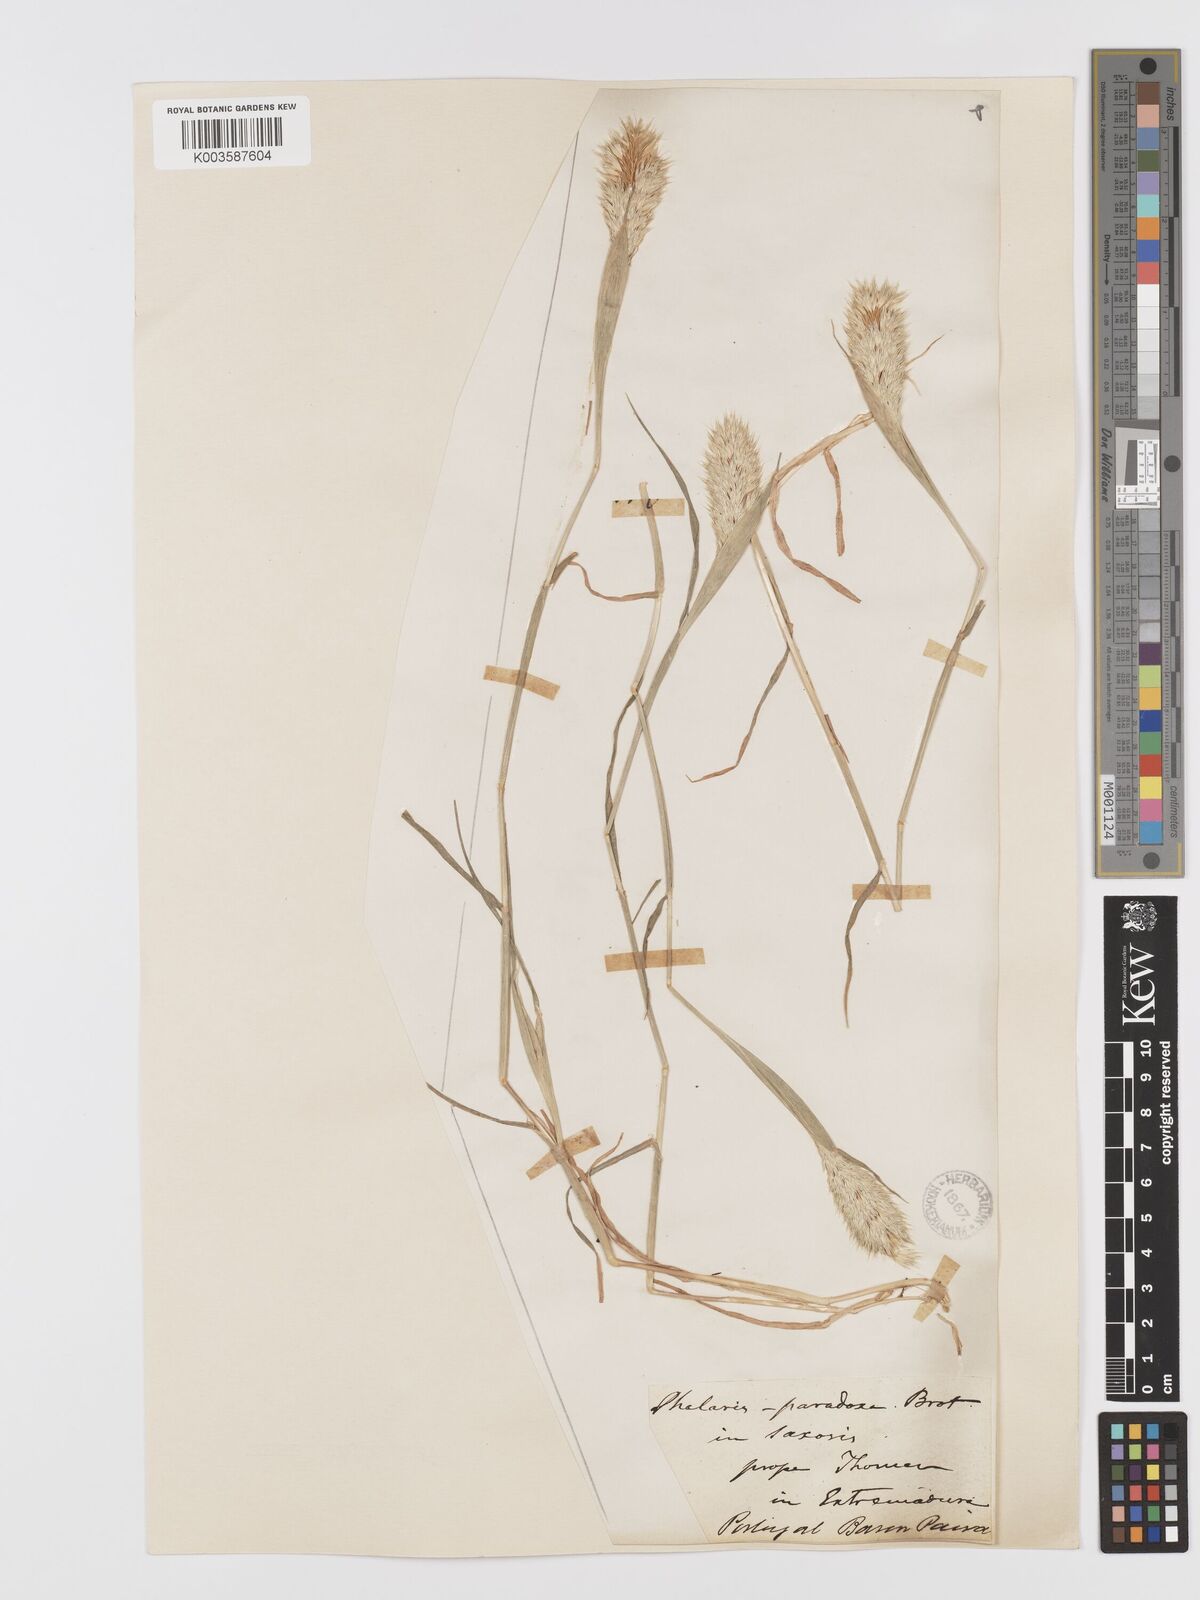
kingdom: Plantae
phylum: Tracheophyta
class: Liliopsida
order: Poales
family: Poaceae
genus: Phalaris
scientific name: Phalaris paradoxa
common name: Awned canary-grass
